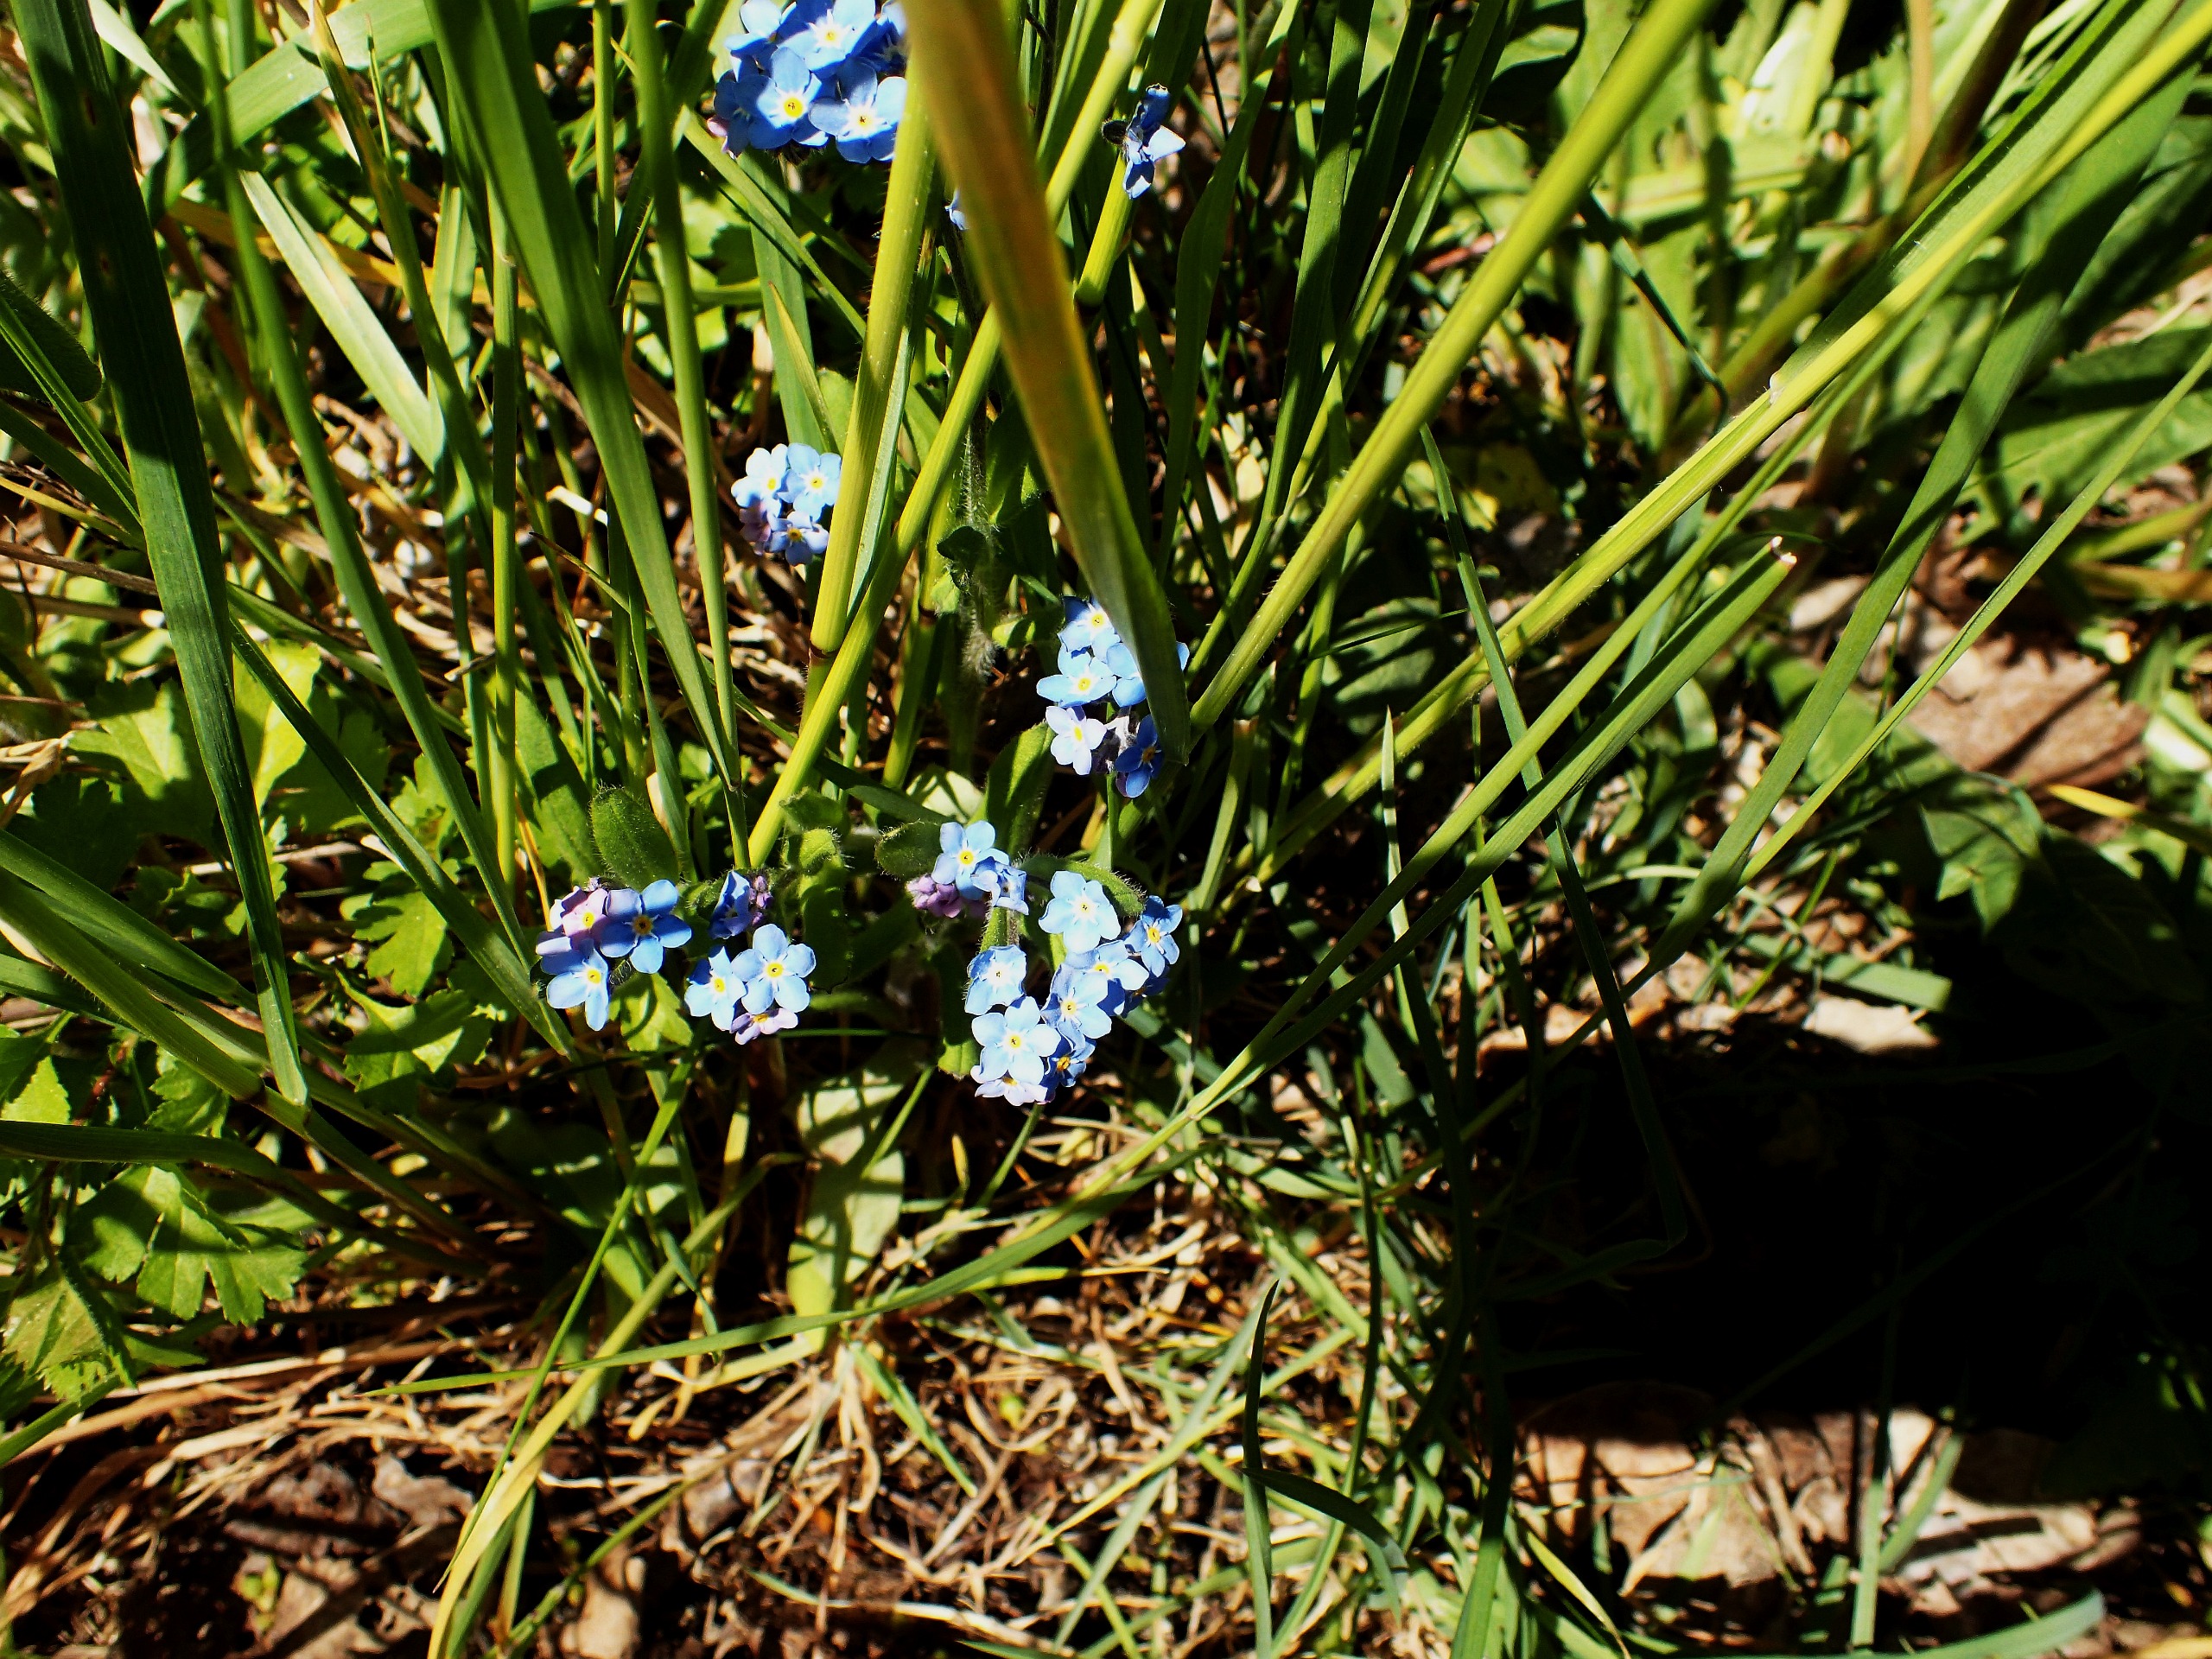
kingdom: Plantae
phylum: Tracheophyta
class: Magnoliopsida
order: Boraginales
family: Boraginaceae
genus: Myosotis
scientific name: Myosotis sylvatica
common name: Skov-forglemmigej
